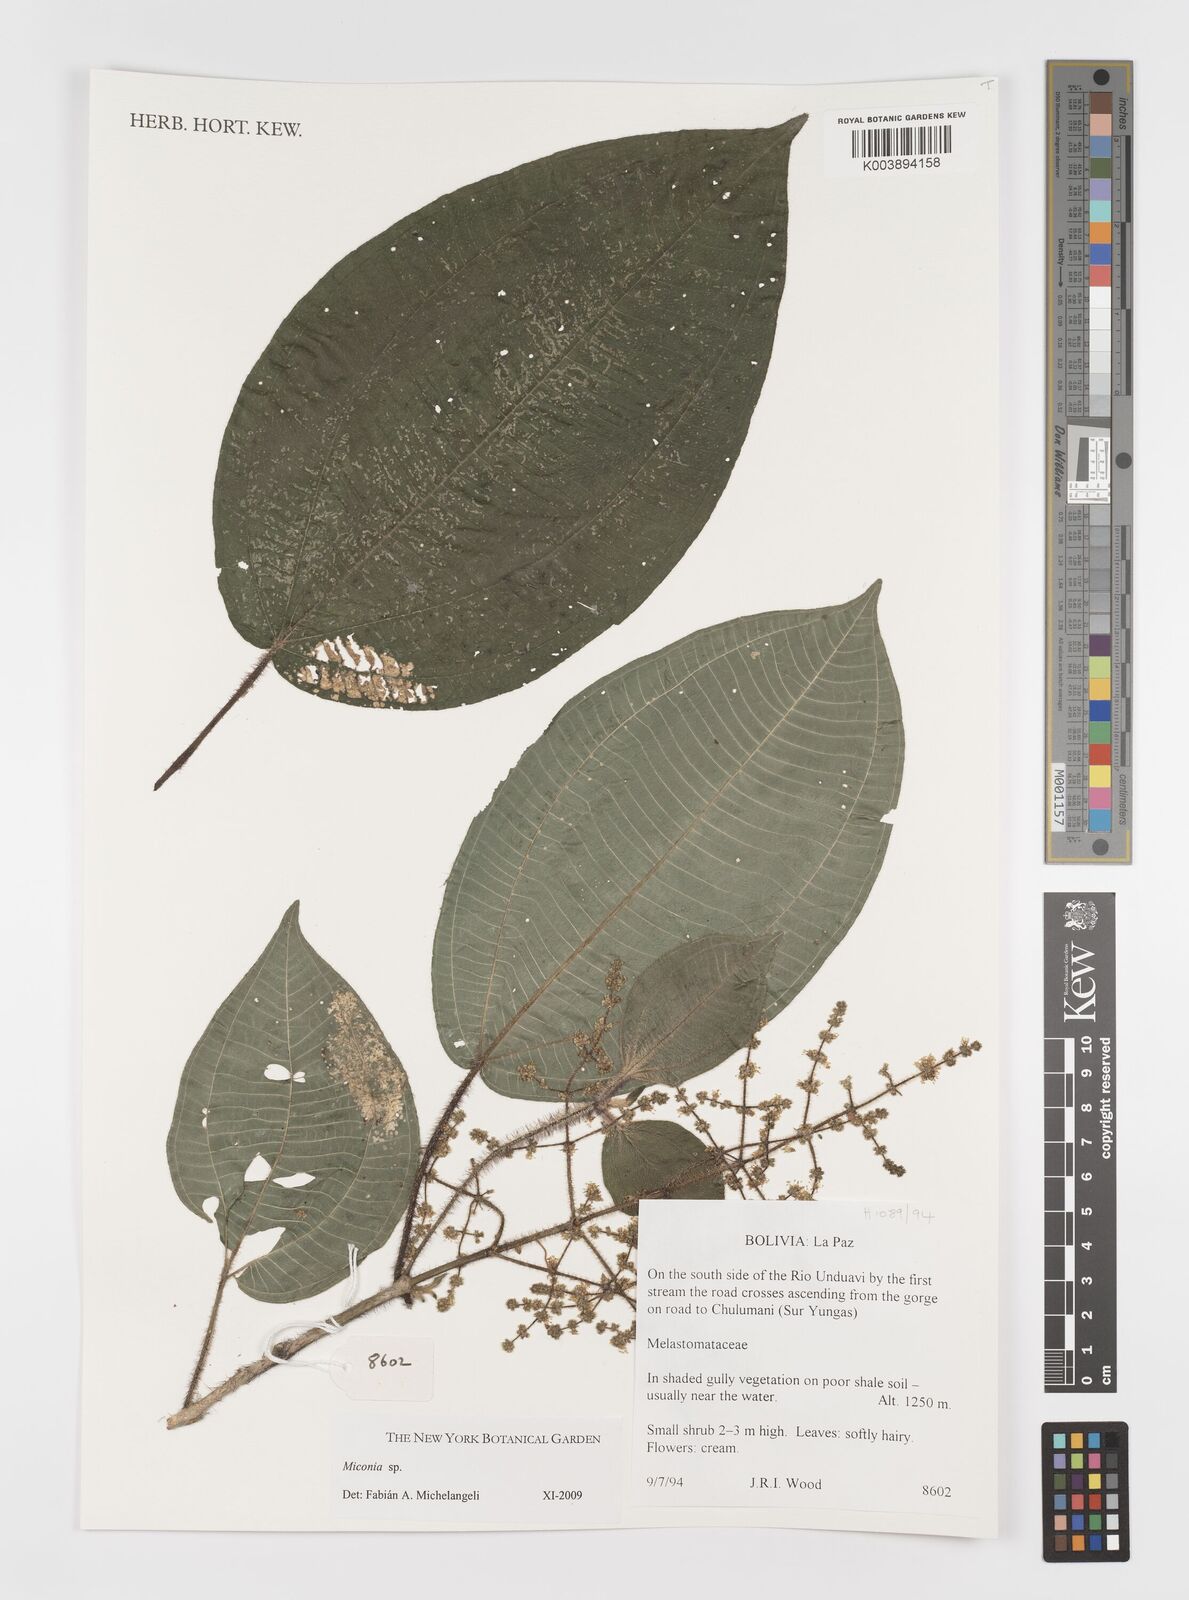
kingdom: Plantae
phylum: Tracheophyta
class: Magnoliopsida
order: Myrtales
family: Melastomataceae
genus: Miconia
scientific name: Miconia
